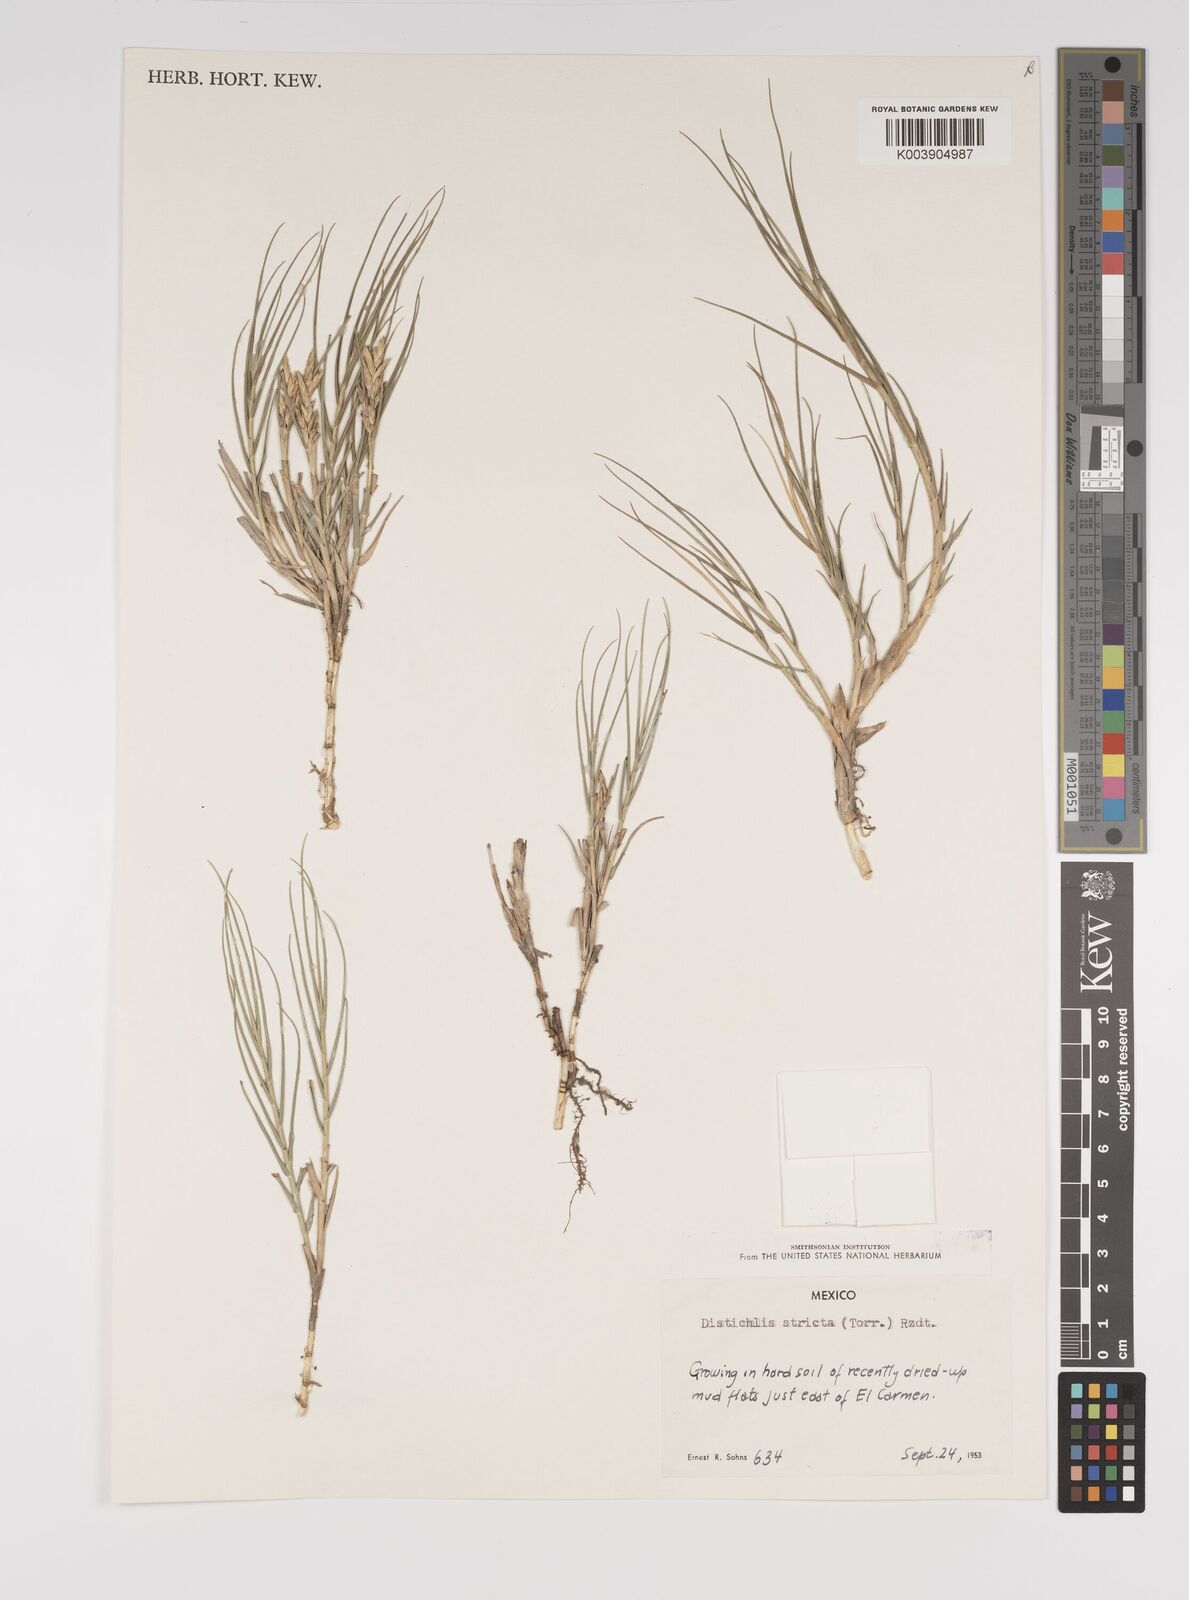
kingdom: Plantae
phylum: Tracheophyta
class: Liliopsida
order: Poales
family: Poaceae
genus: Distichlis
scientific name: Distichlis spicata
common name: Saltgrass
